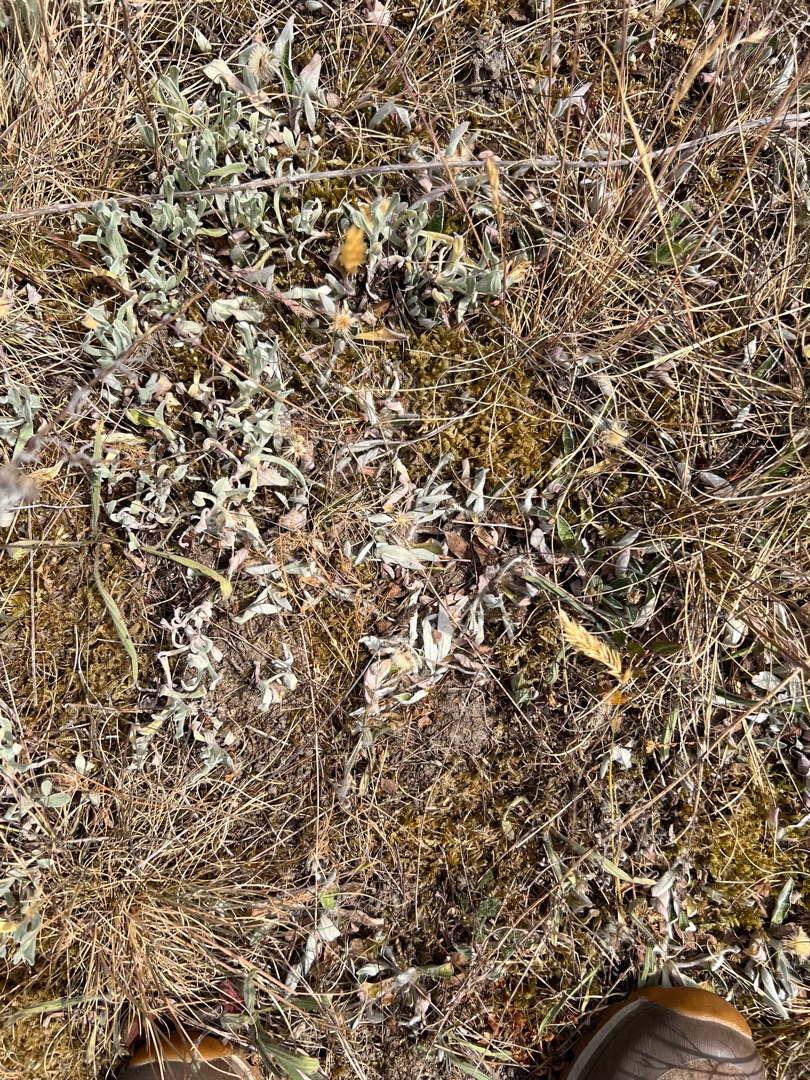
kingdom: Plantae
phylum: Tracheophyta
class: Magnoliopsida
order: Asterales
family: Asteraceae
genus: Helichrysum
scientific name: Helichrysum arenarium
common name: Gul evighedsblomst
